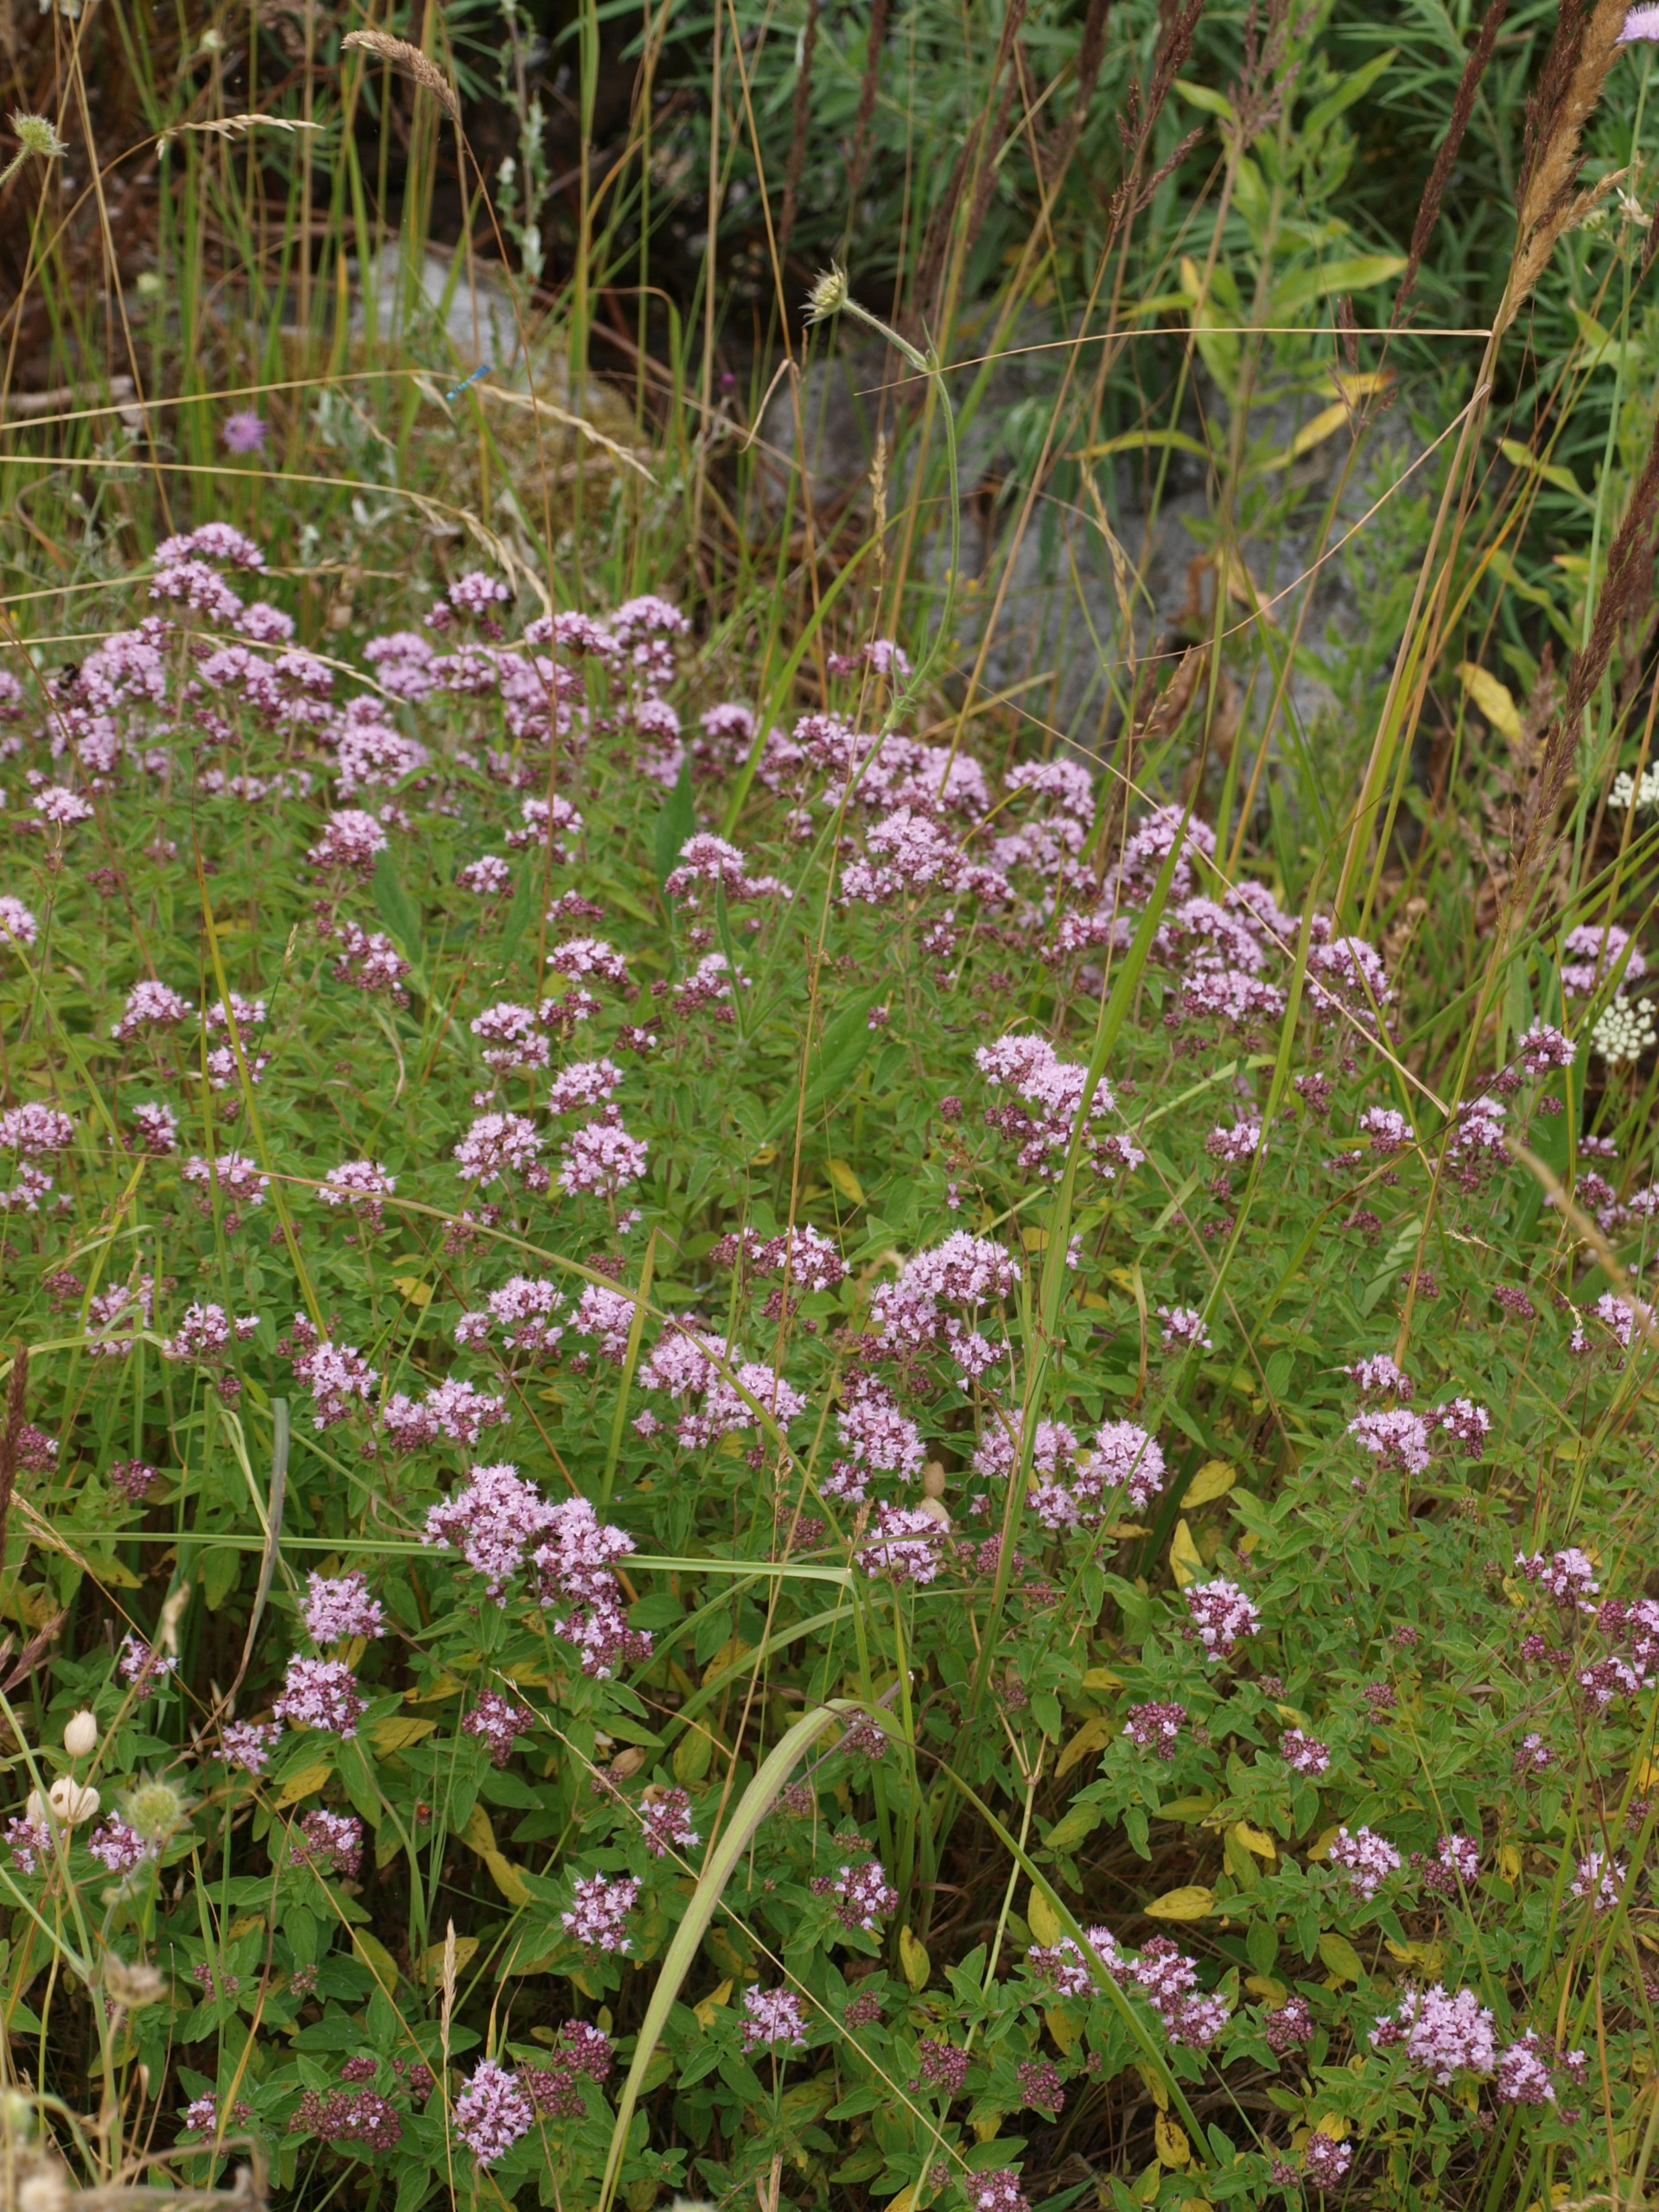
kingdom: Plantae
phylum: Tracheophyta
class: Magnoliopsida
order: Lamiales
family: Lamiaceae
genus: Origanum
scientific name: Origanum vulgare
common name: Merian
